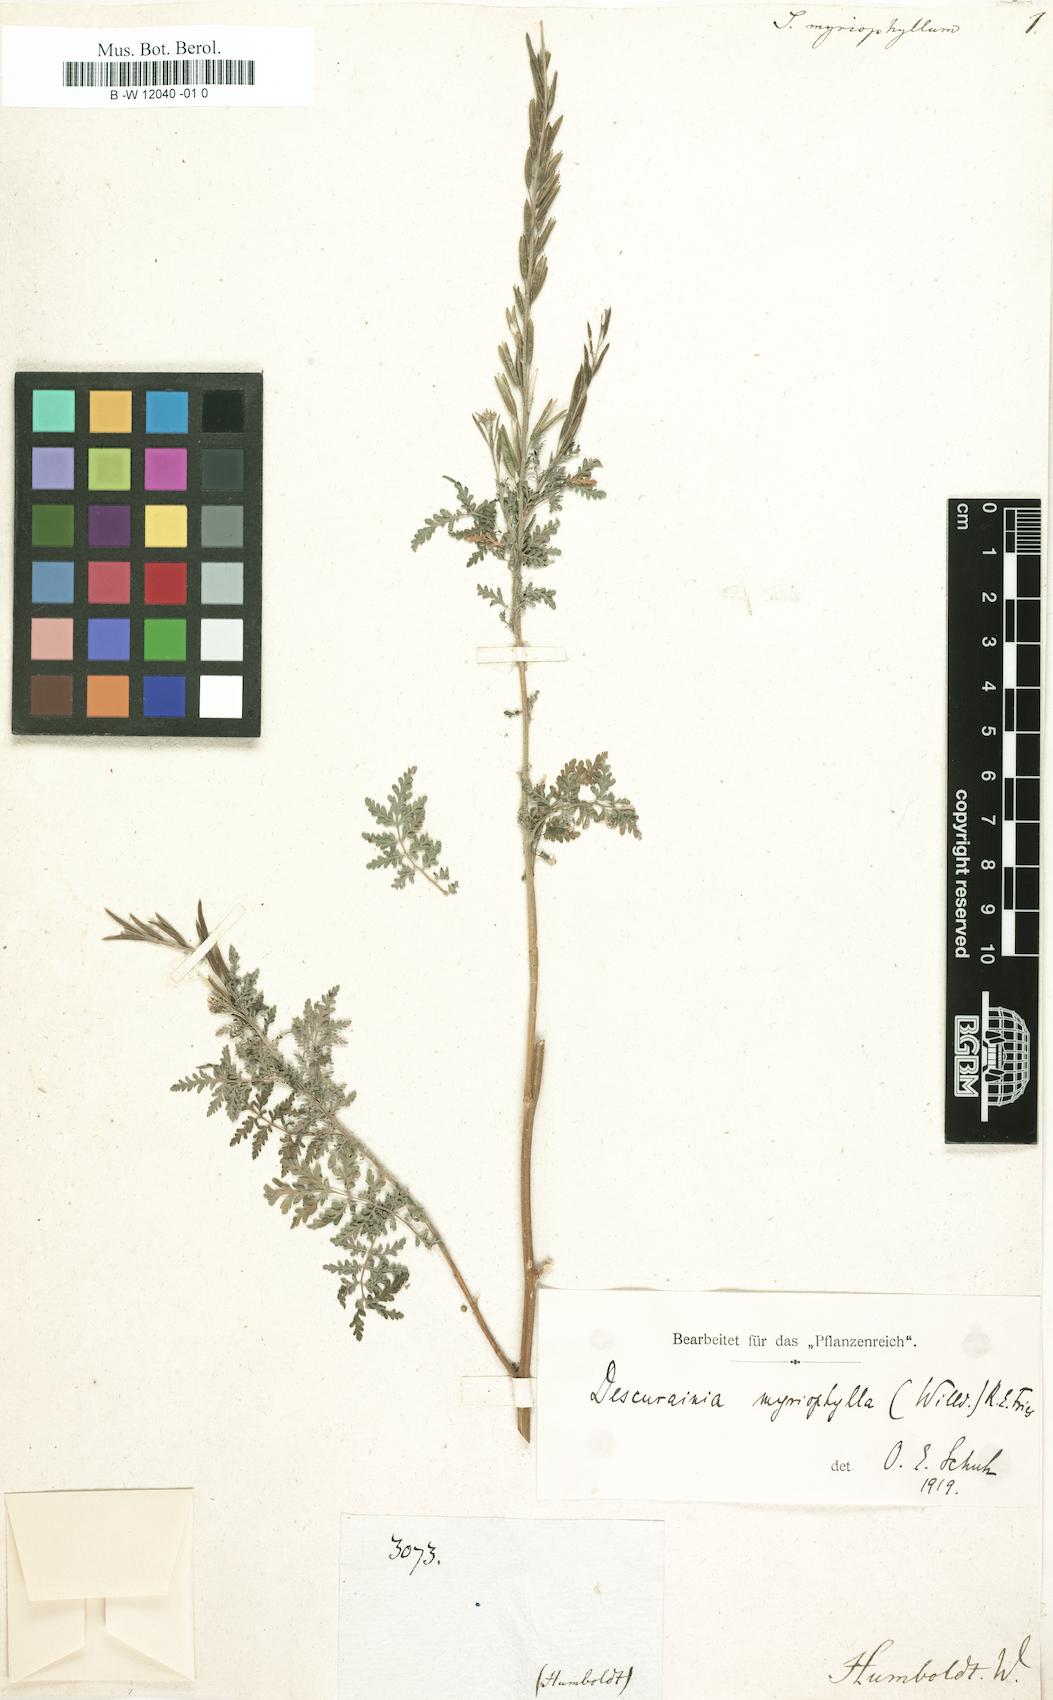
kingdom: Plantae
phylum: Tracheophyta
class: Magnoliopsida
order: Brassicales
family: Brassicaceae
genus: Sisymbrium
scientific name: Sisymbrium myriophyllum
